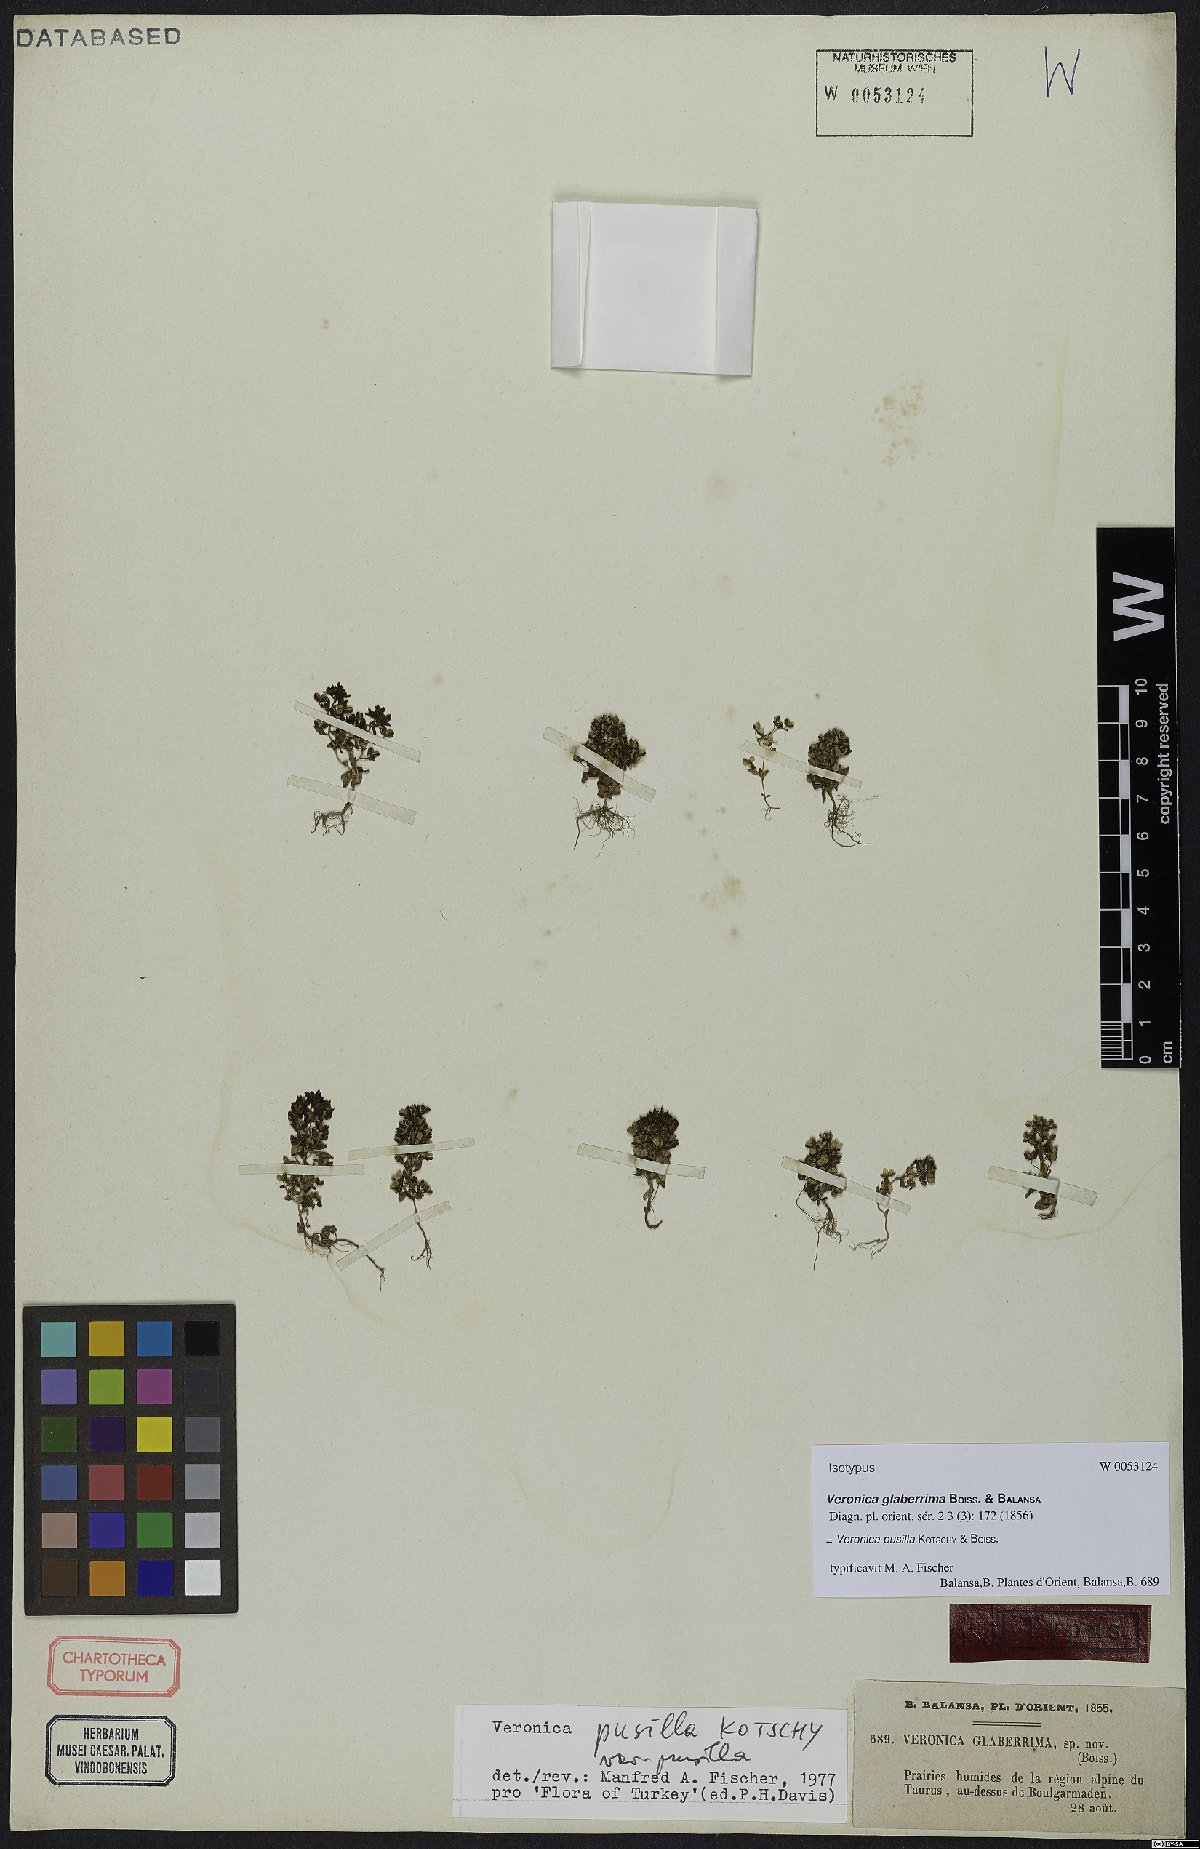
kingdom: Plantae
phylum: Tracheophyta
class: Magnoliopsida
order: Lamiales
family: Plantaginaceae
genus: Veronica
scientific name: Veronica pusilla
